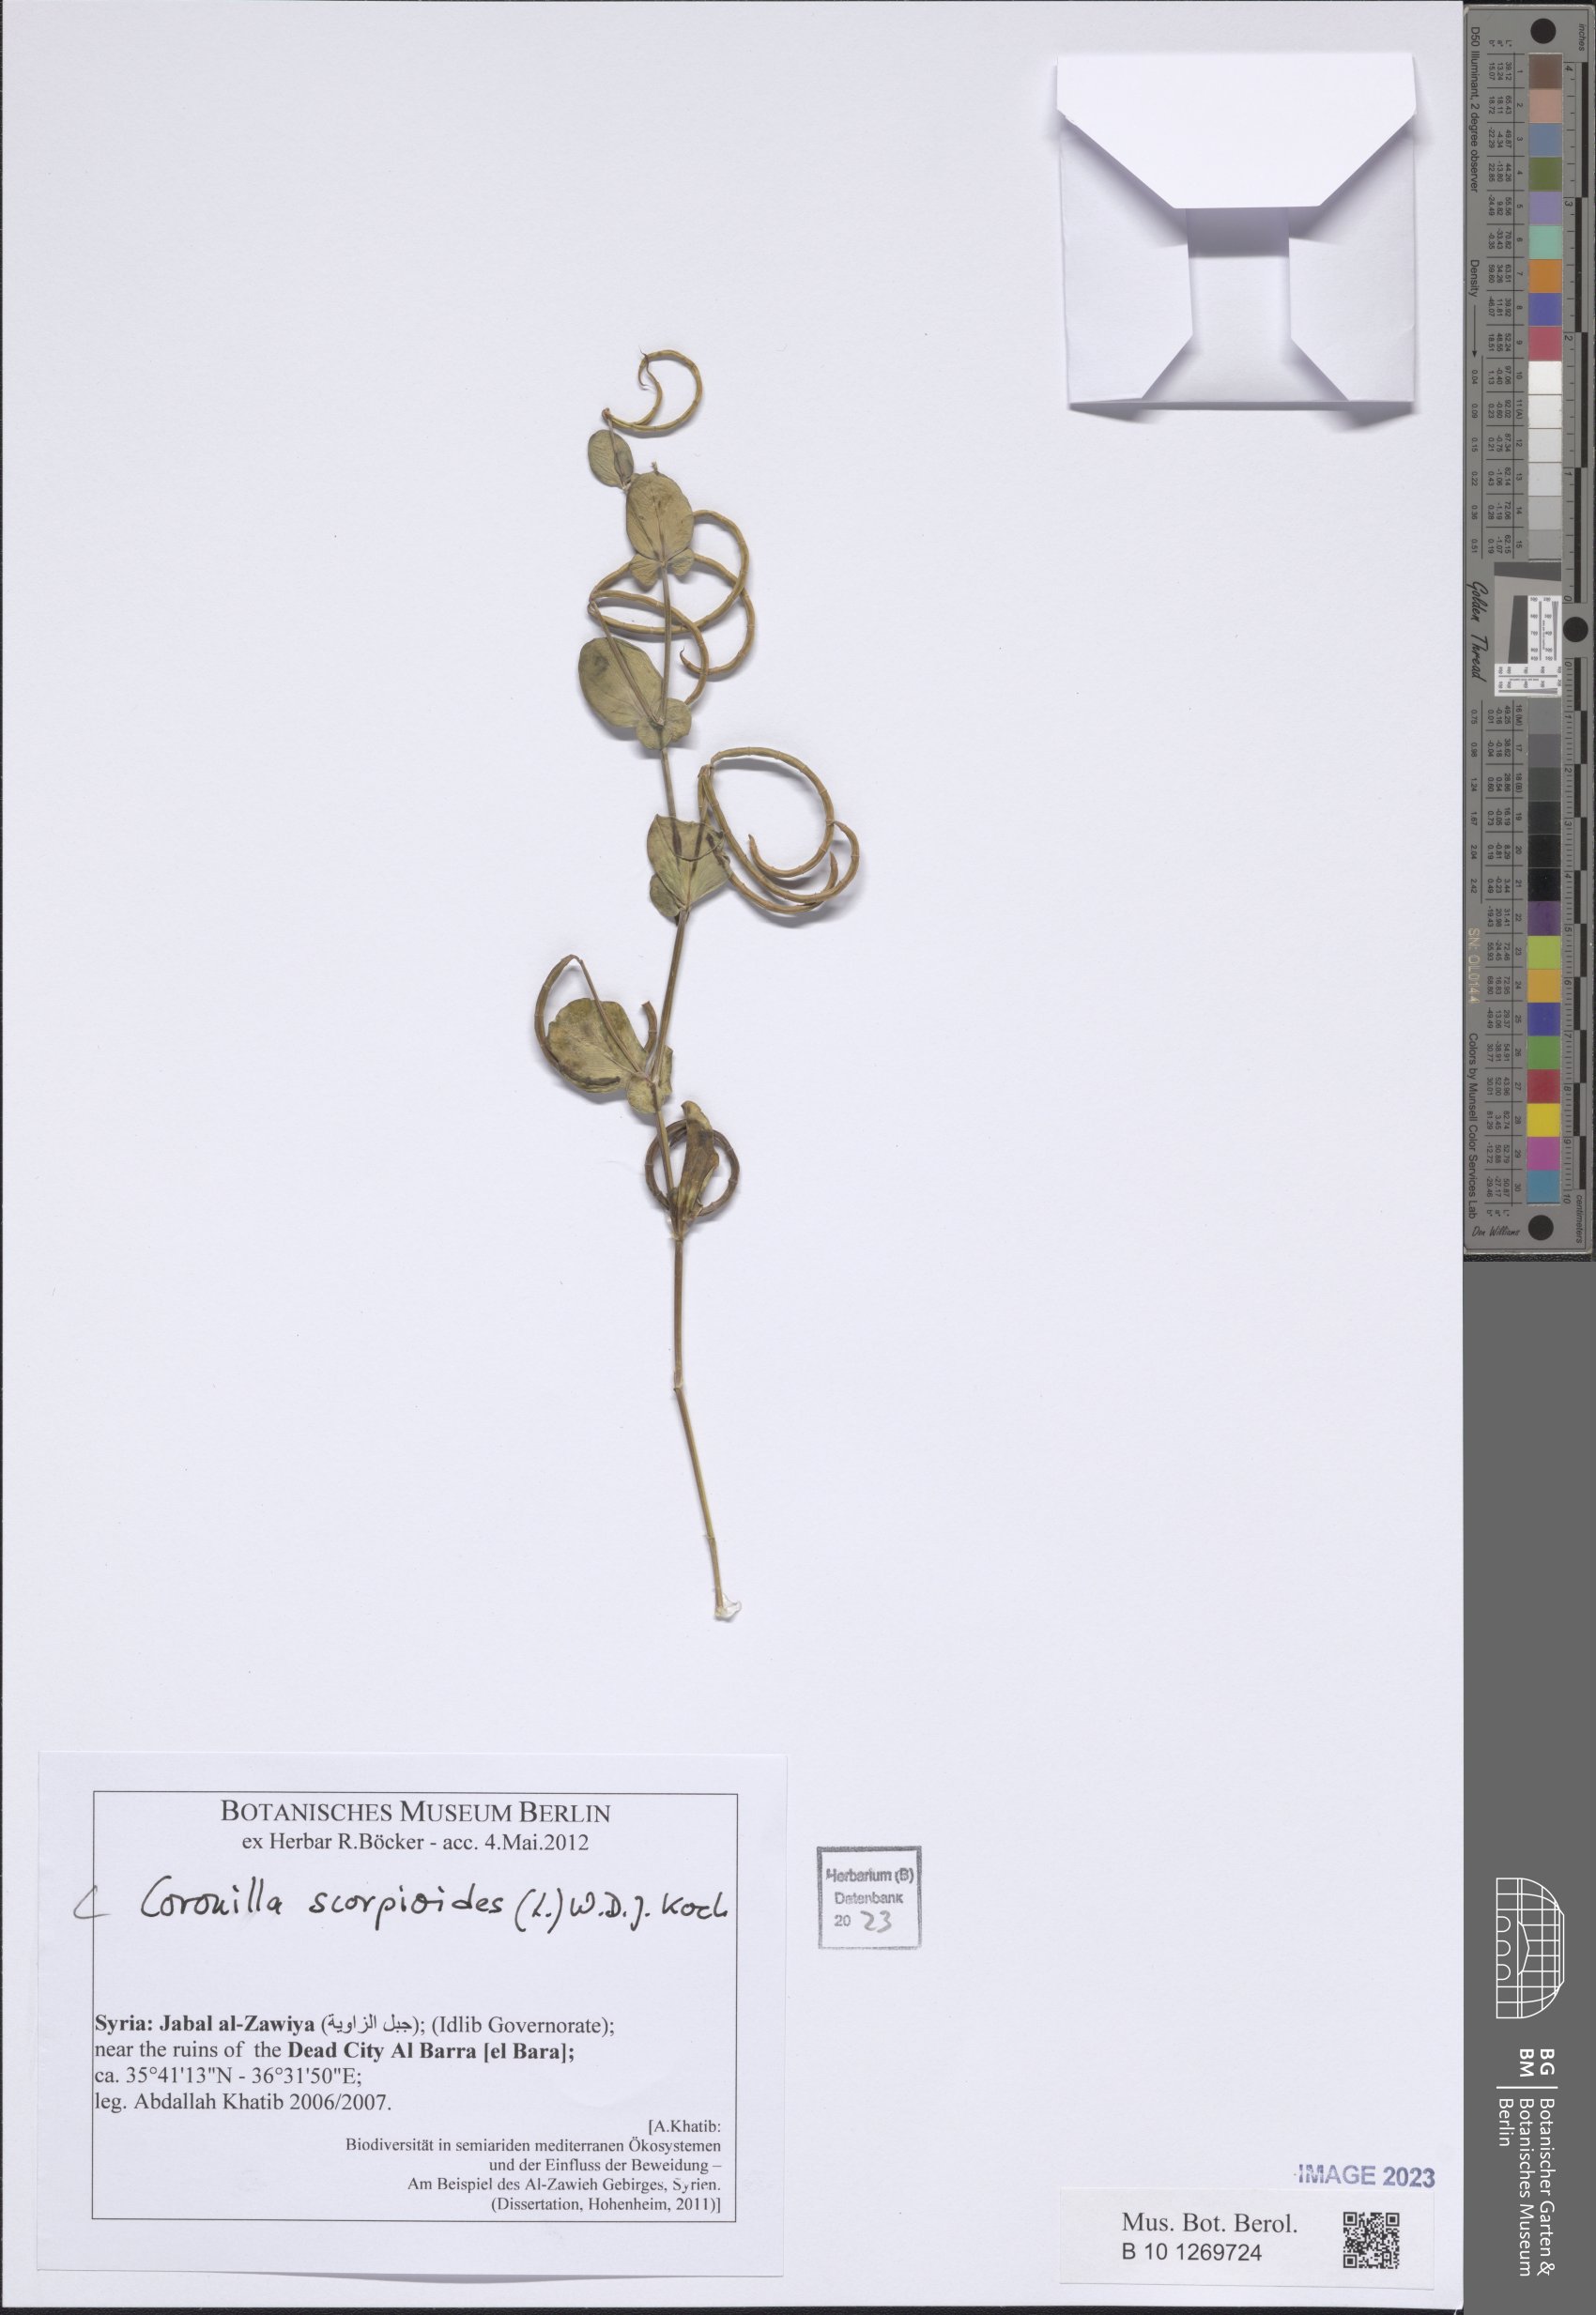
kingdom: Plantae
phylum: Tracheophyta
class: Magnoliopsida
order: Fabales
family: Fabaceae
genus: Coronilla
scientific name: Coronilla scorpioides
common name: Annual scorpion-vetch
